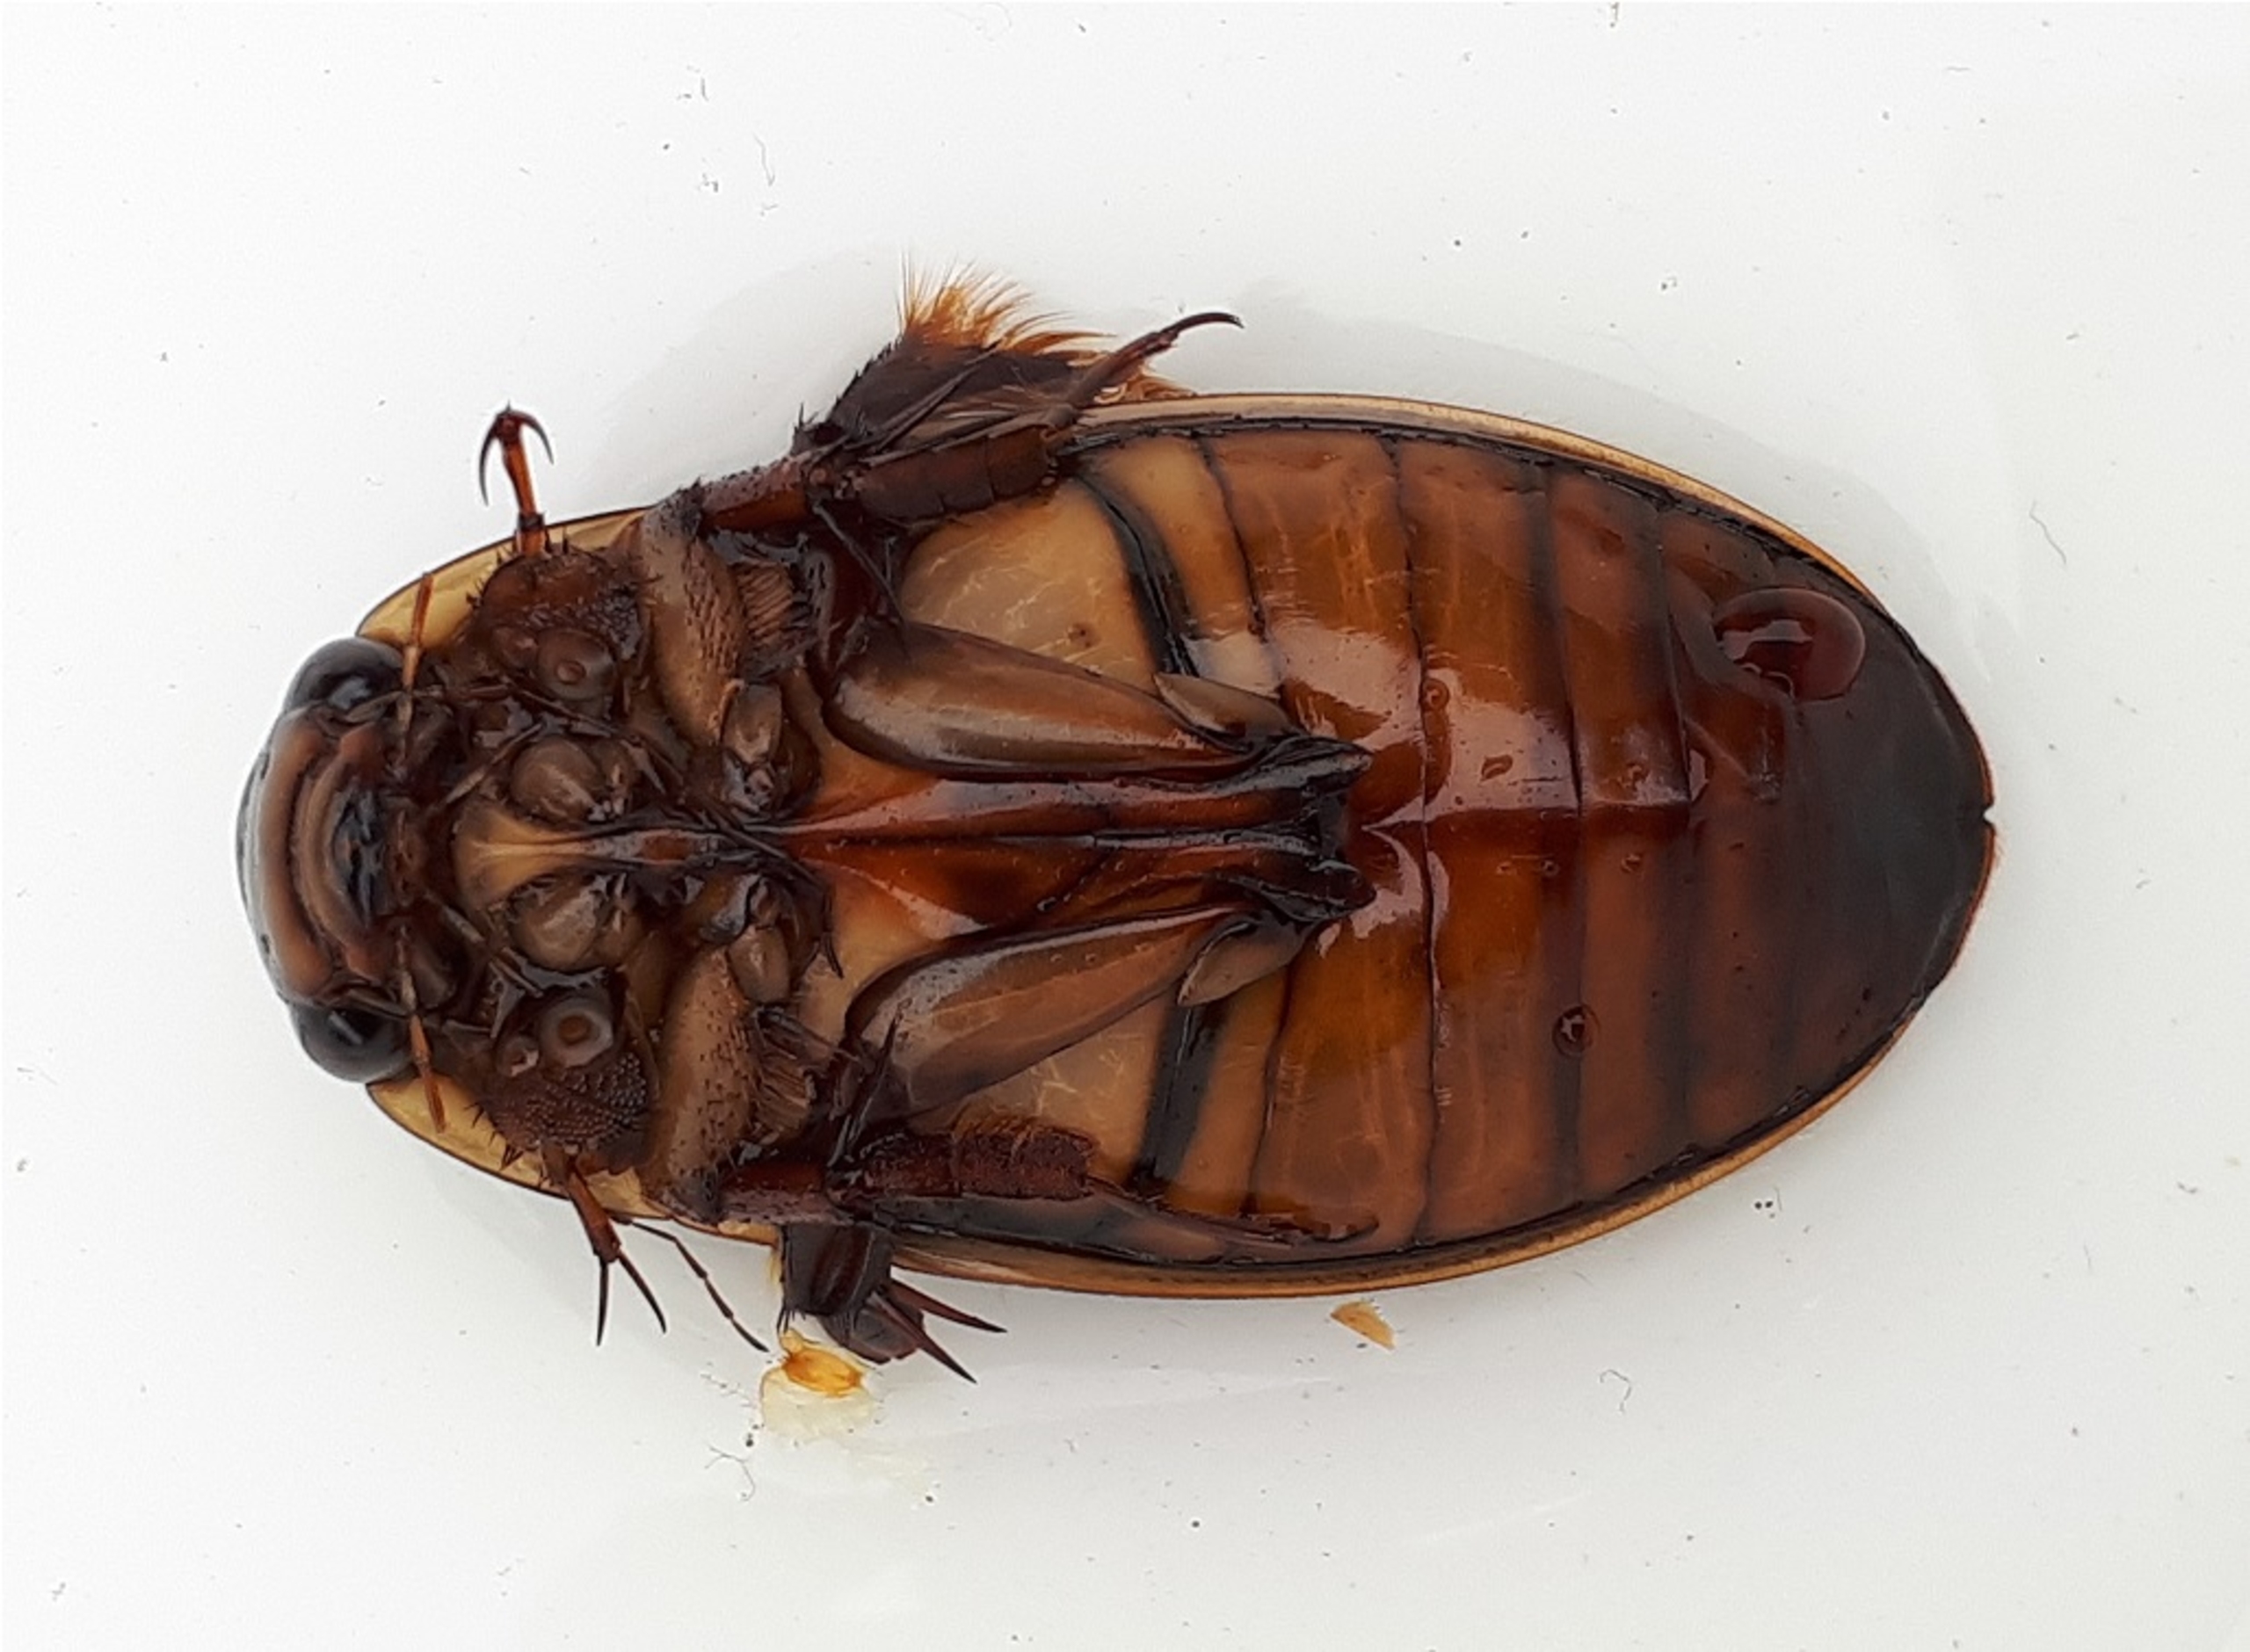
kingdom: Animalia
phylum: Arthropoda
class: Insecta
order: Coleoptera
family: Dytiscidae
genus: Dytiscus
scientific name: Dytiscus dimidiatus
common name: Rundhoftet vandkalv
